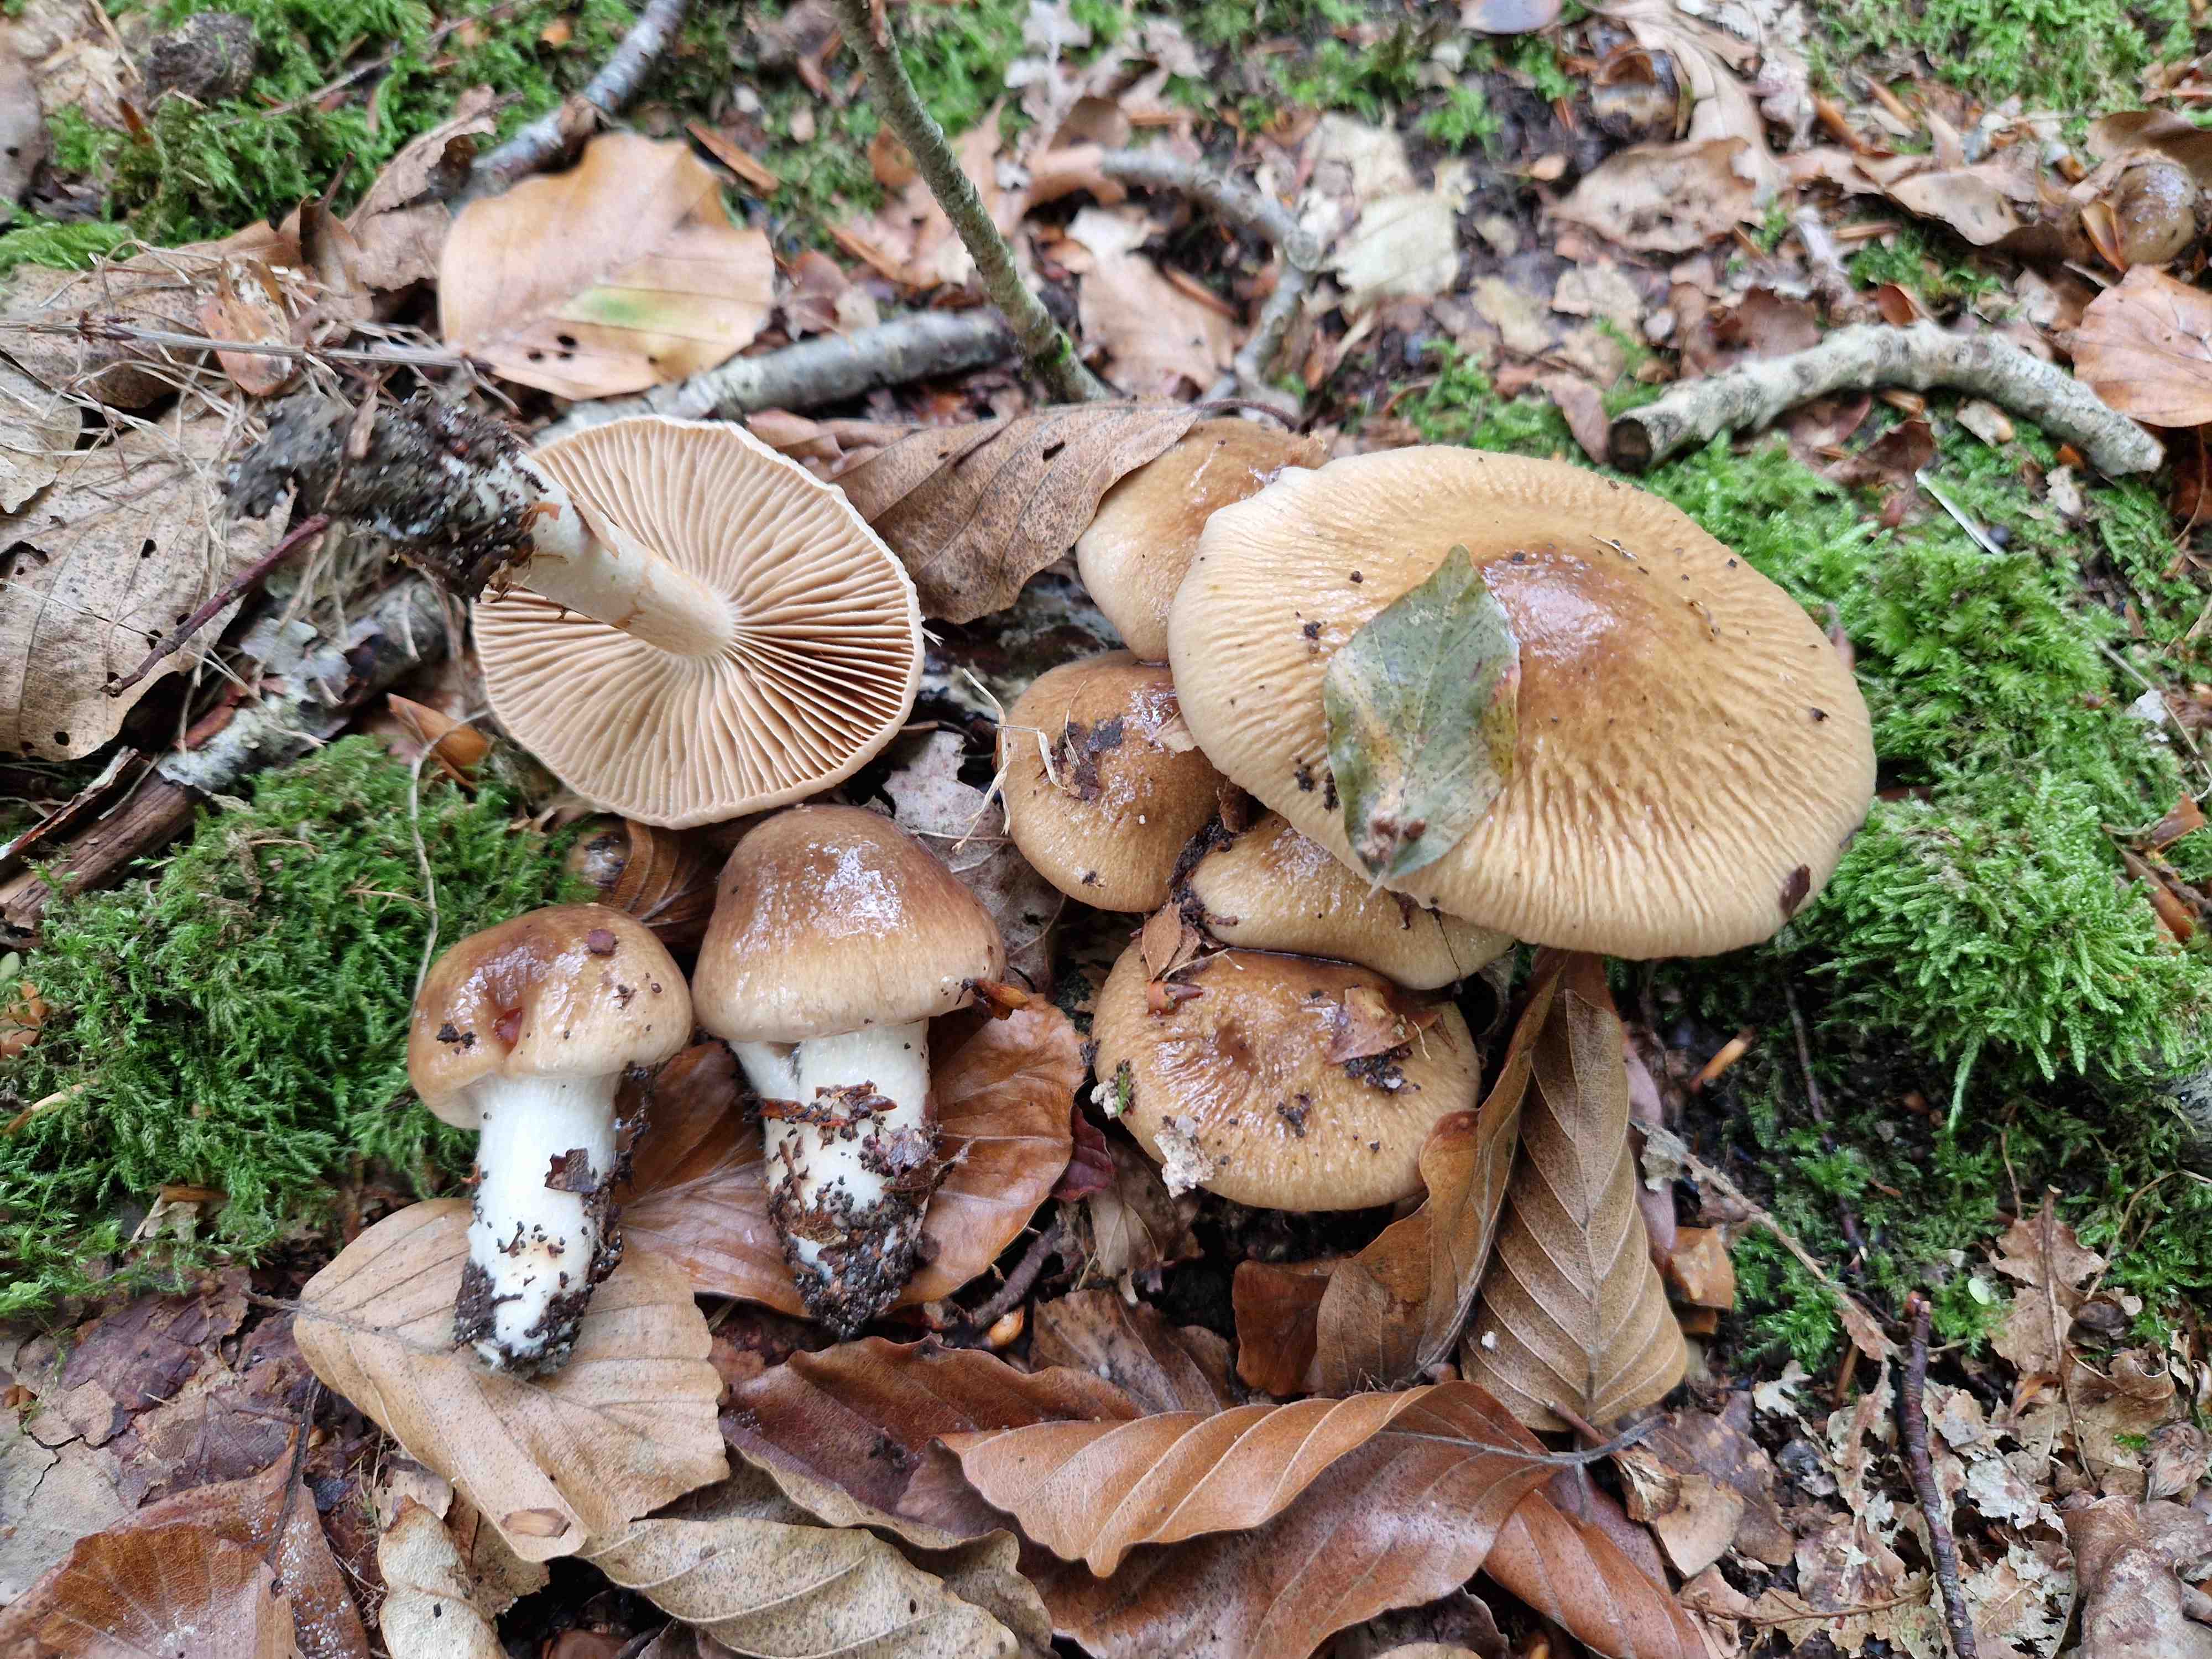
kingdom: Fungi
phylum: Basidiomycota
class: Agaricomycetes
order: Agaricales
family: Cortinariaceae
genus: Cortinarius
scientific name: Cortinarius elatior
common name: høj slørhat
